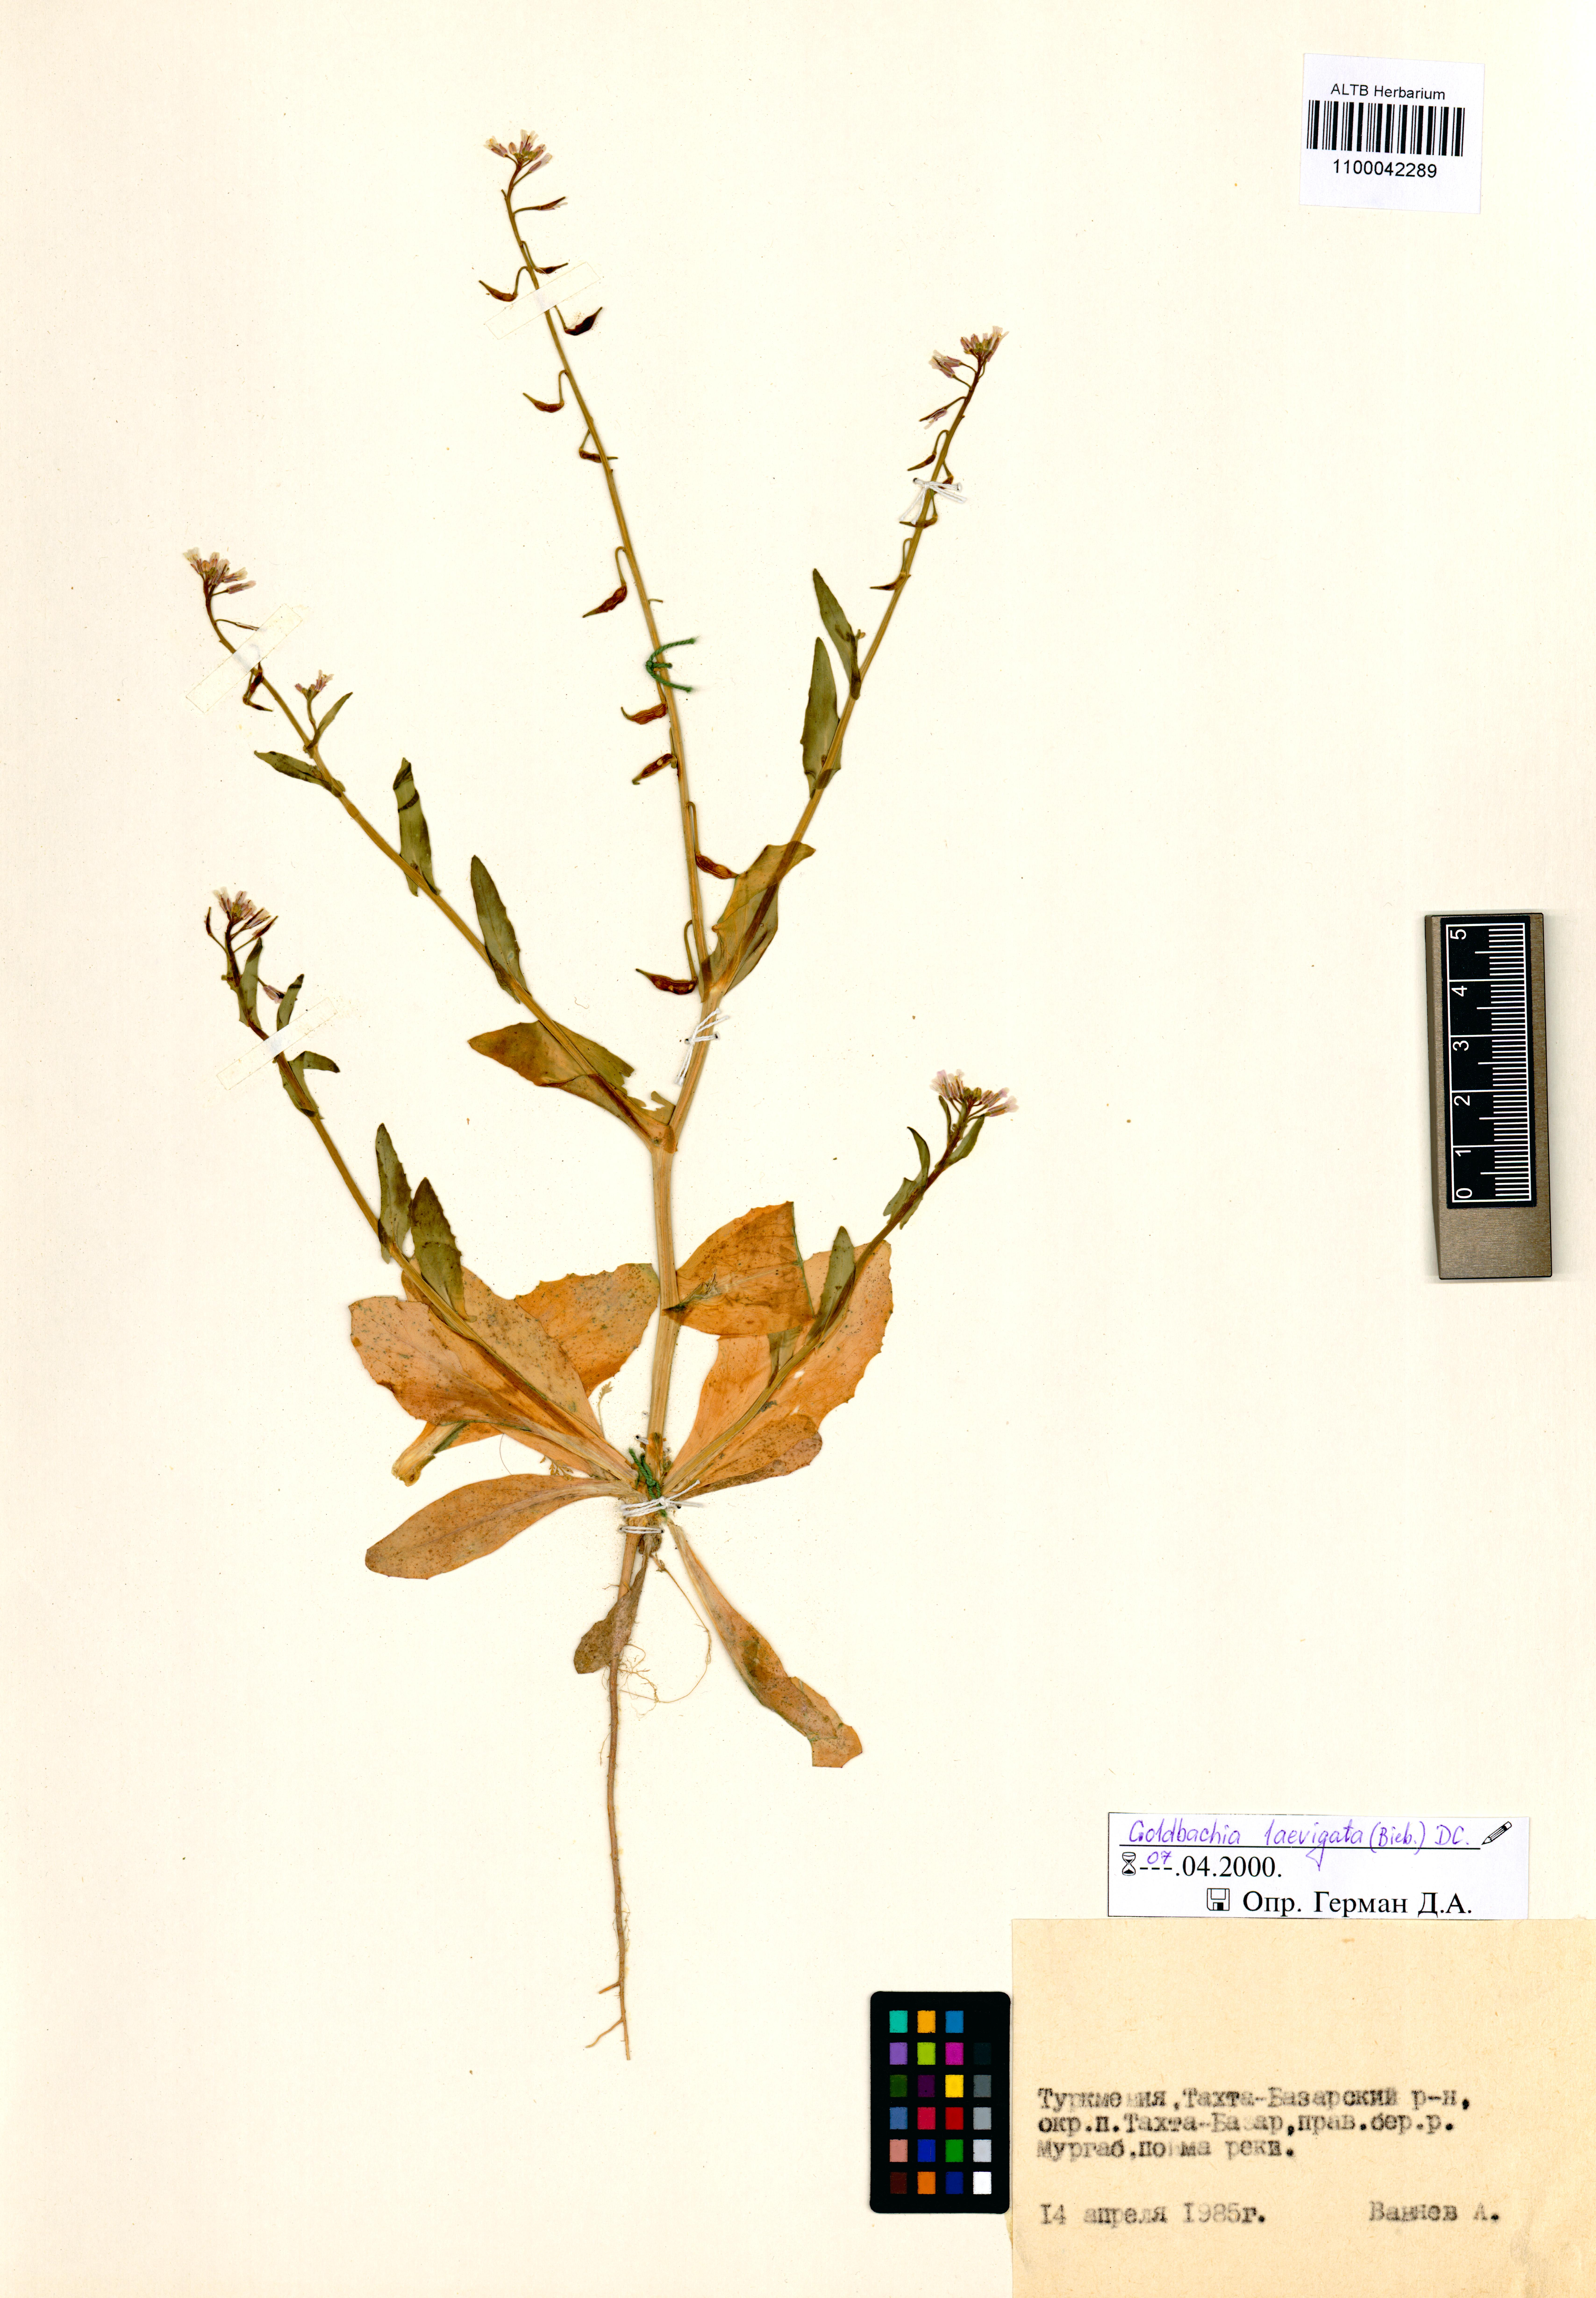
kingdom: Plantae
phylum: Tracheophyta
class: Magnoliopsida
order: Brassicales
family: Brassicaceae
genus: Goldbachia
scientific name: Goldbachia laevigata
